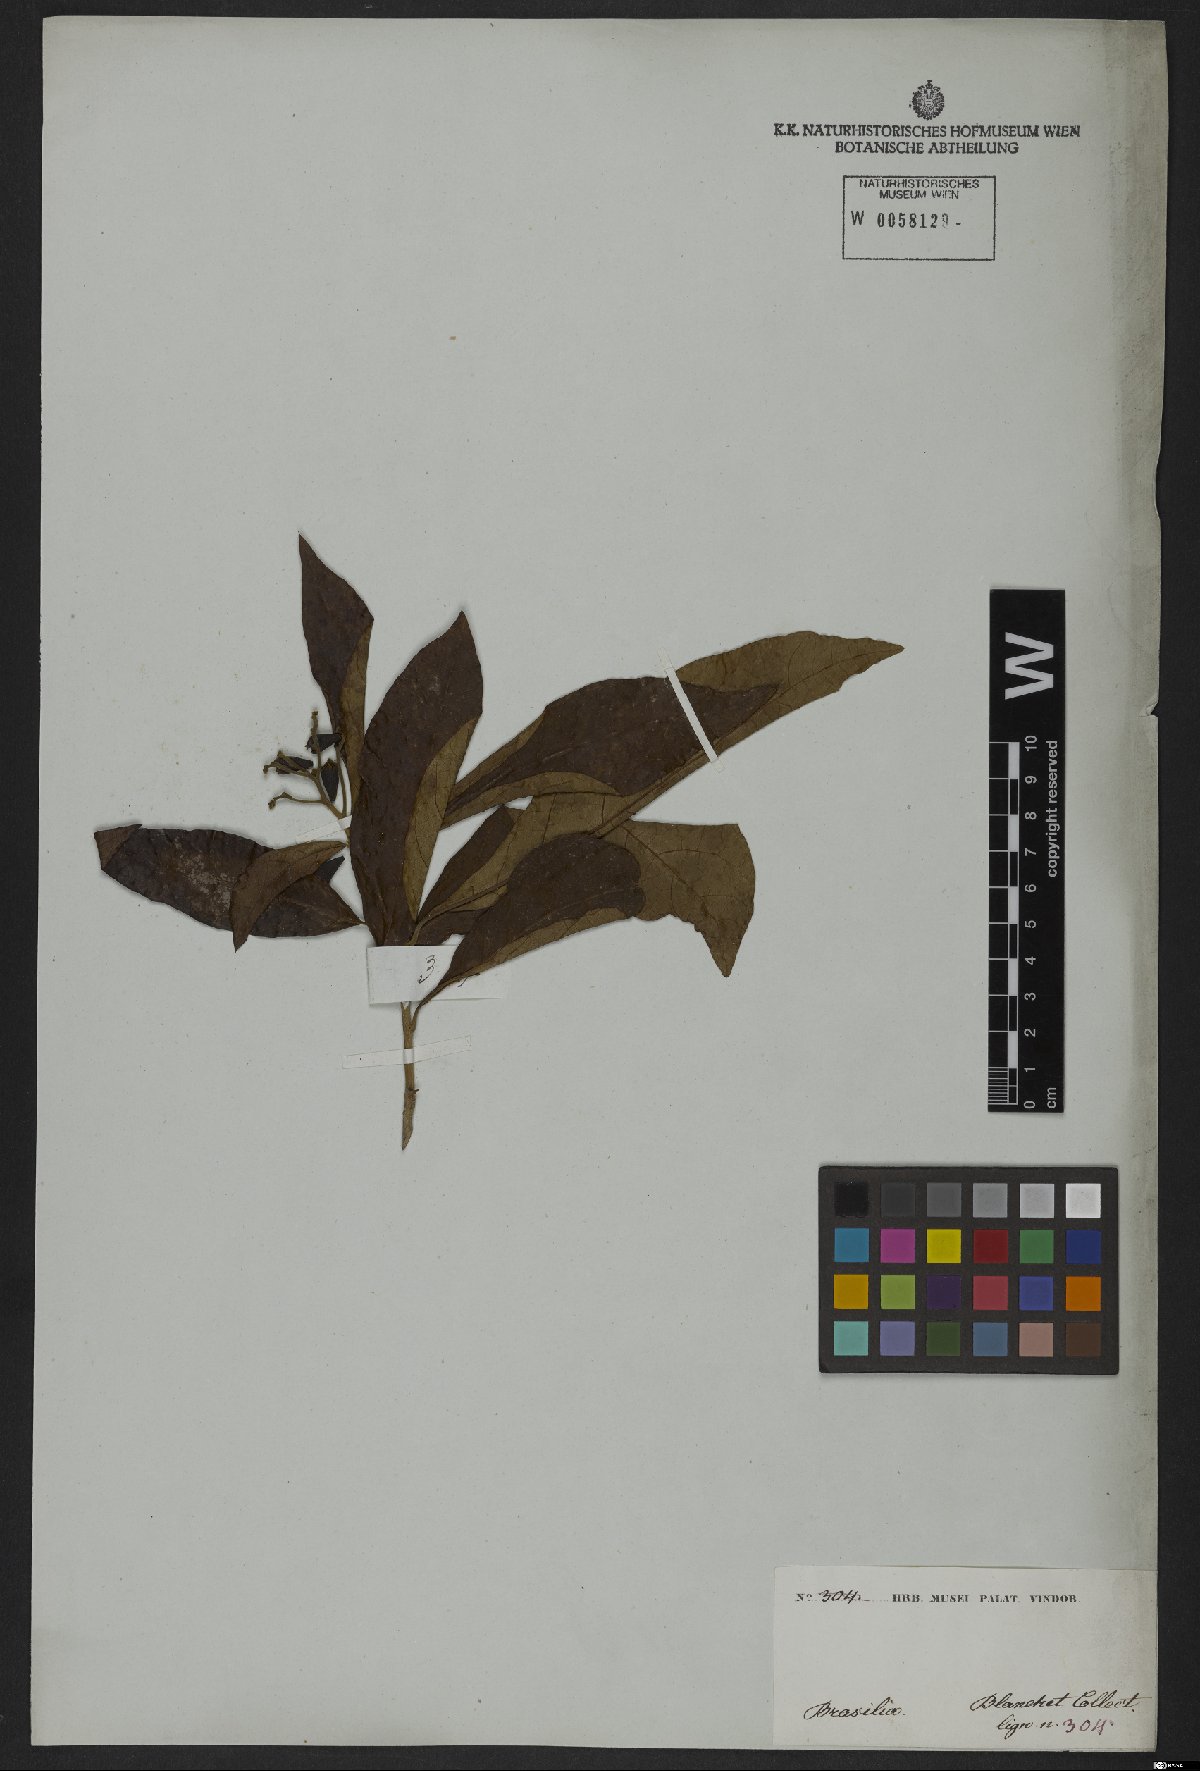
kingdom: Plantae
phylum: Tracheophyta
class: Magnoliopsida
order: Boraginales
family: Boraginaceae
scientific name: Boraginaceae
